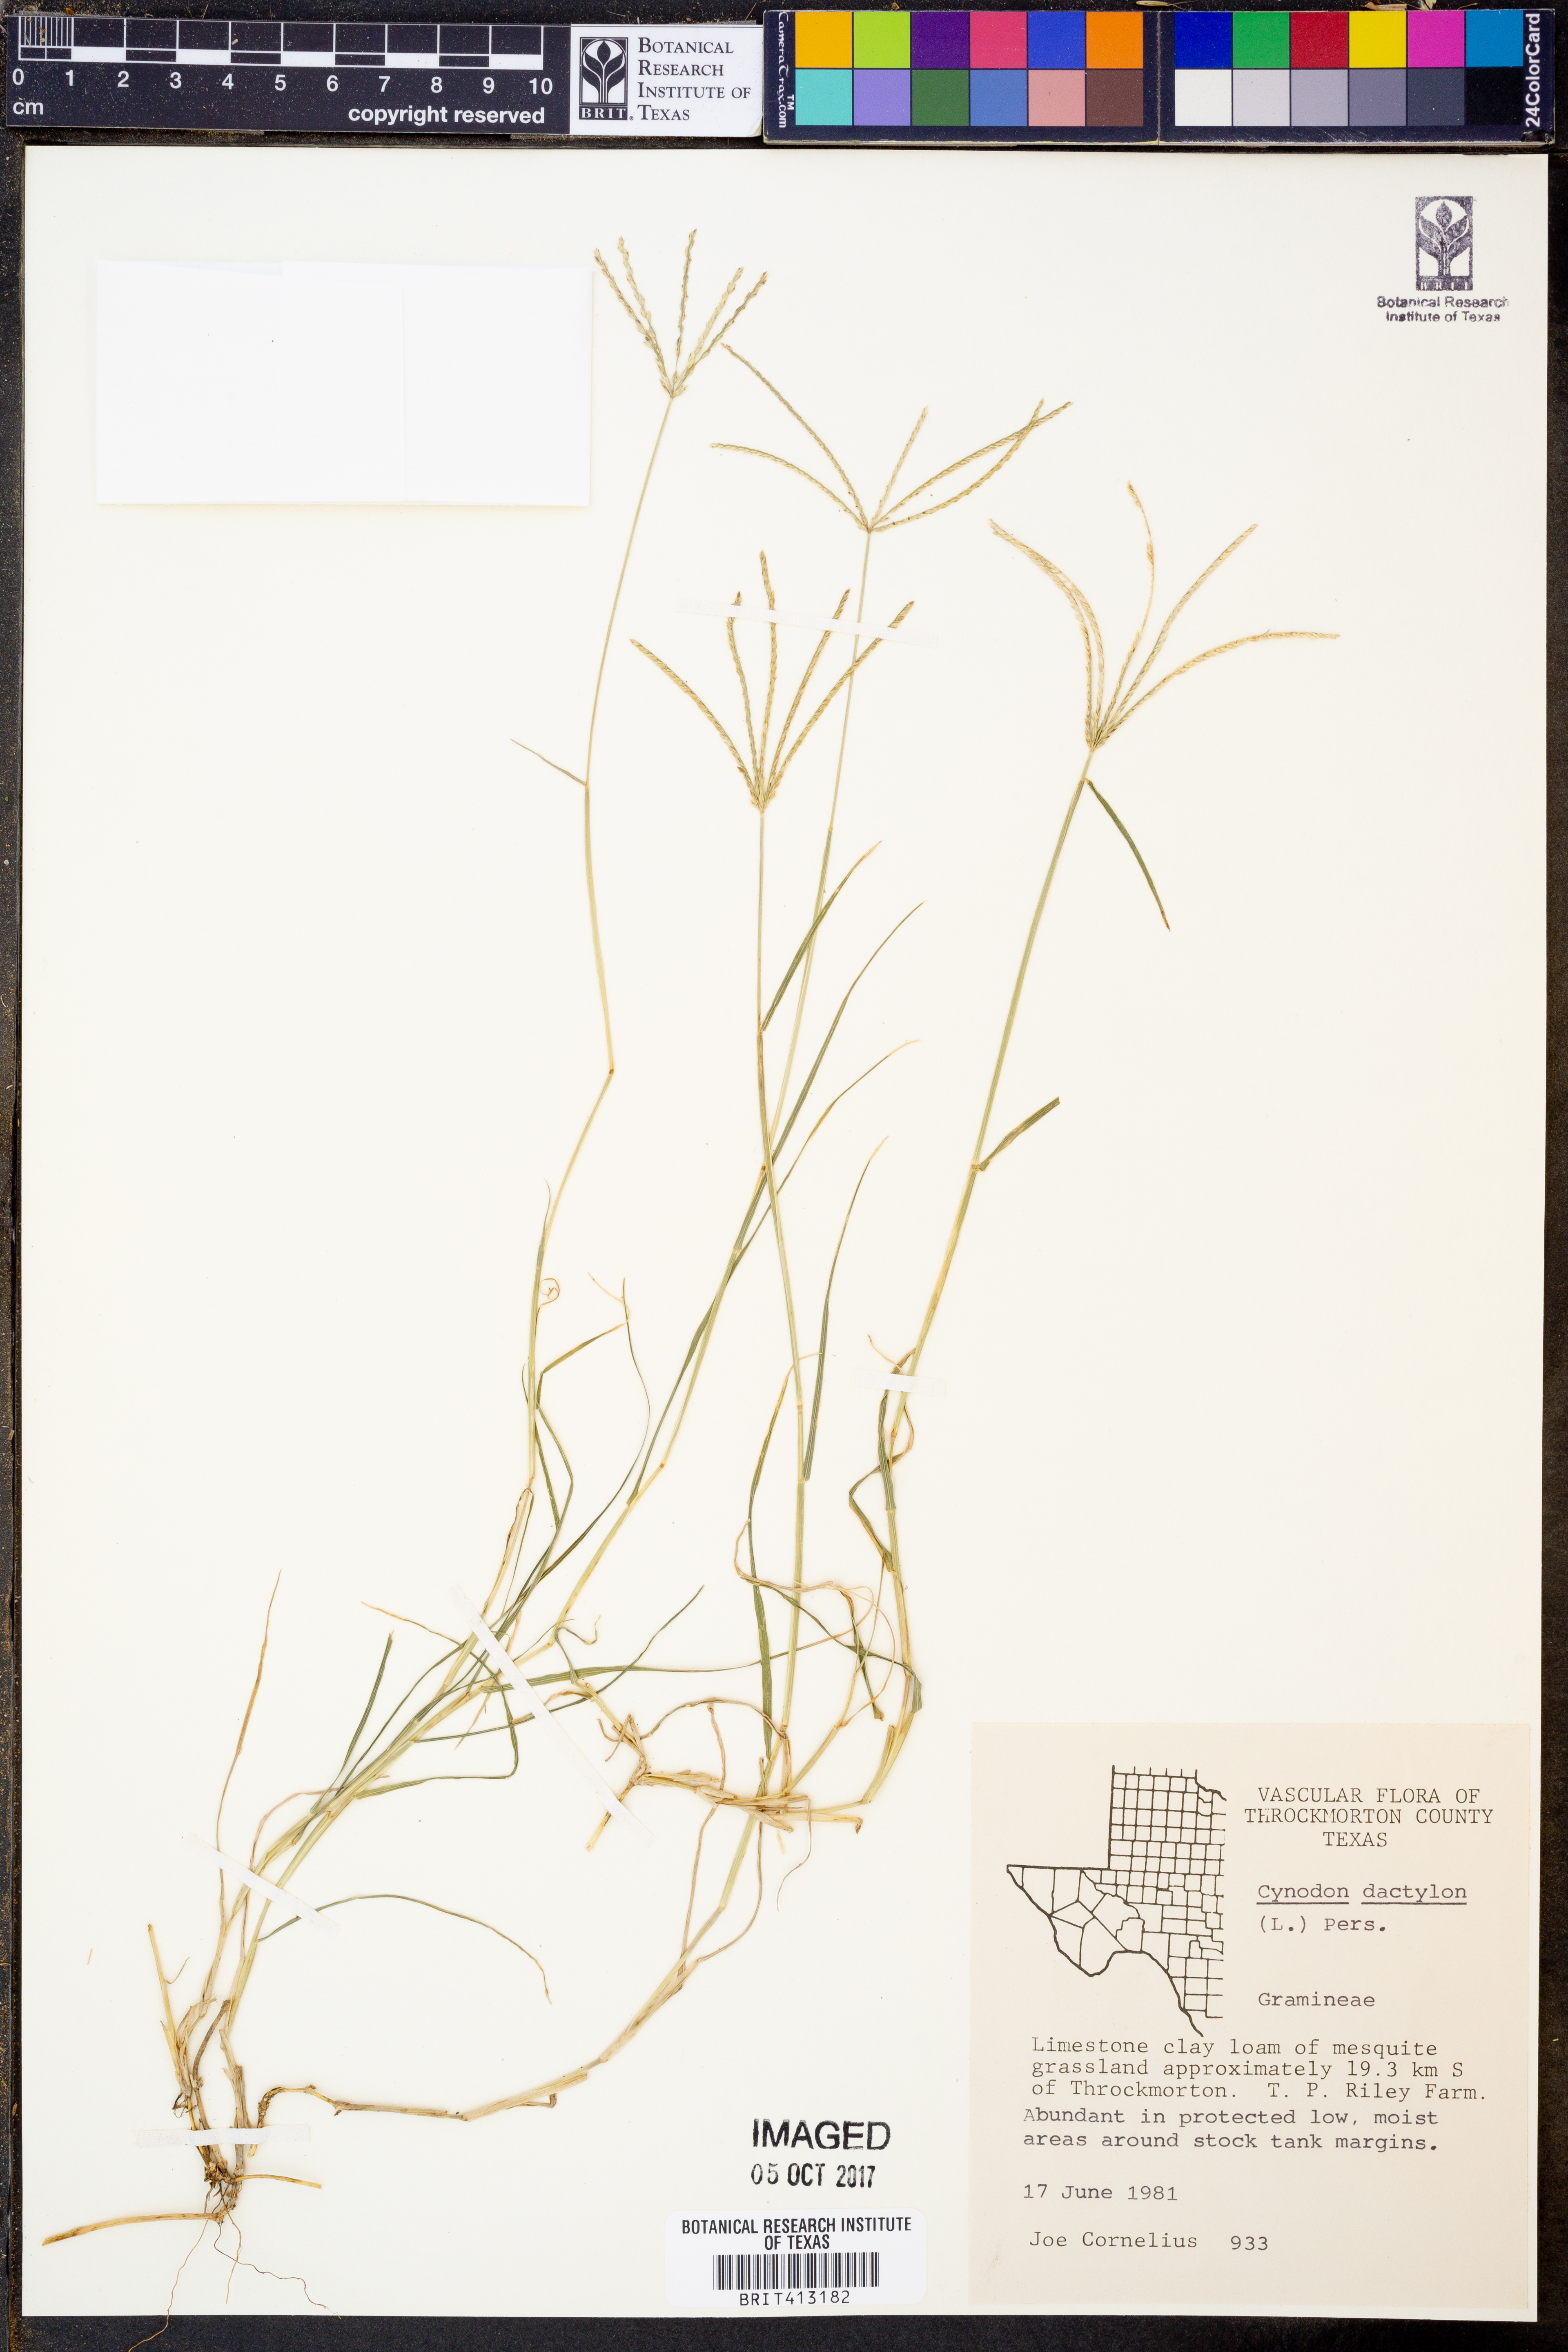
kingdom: Plantae
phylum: Tracheophyta
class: Liliopsida
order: Poales
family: Poaceae
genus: Cynodon
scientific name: Cynodon dactylon
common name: Bermuda grass
